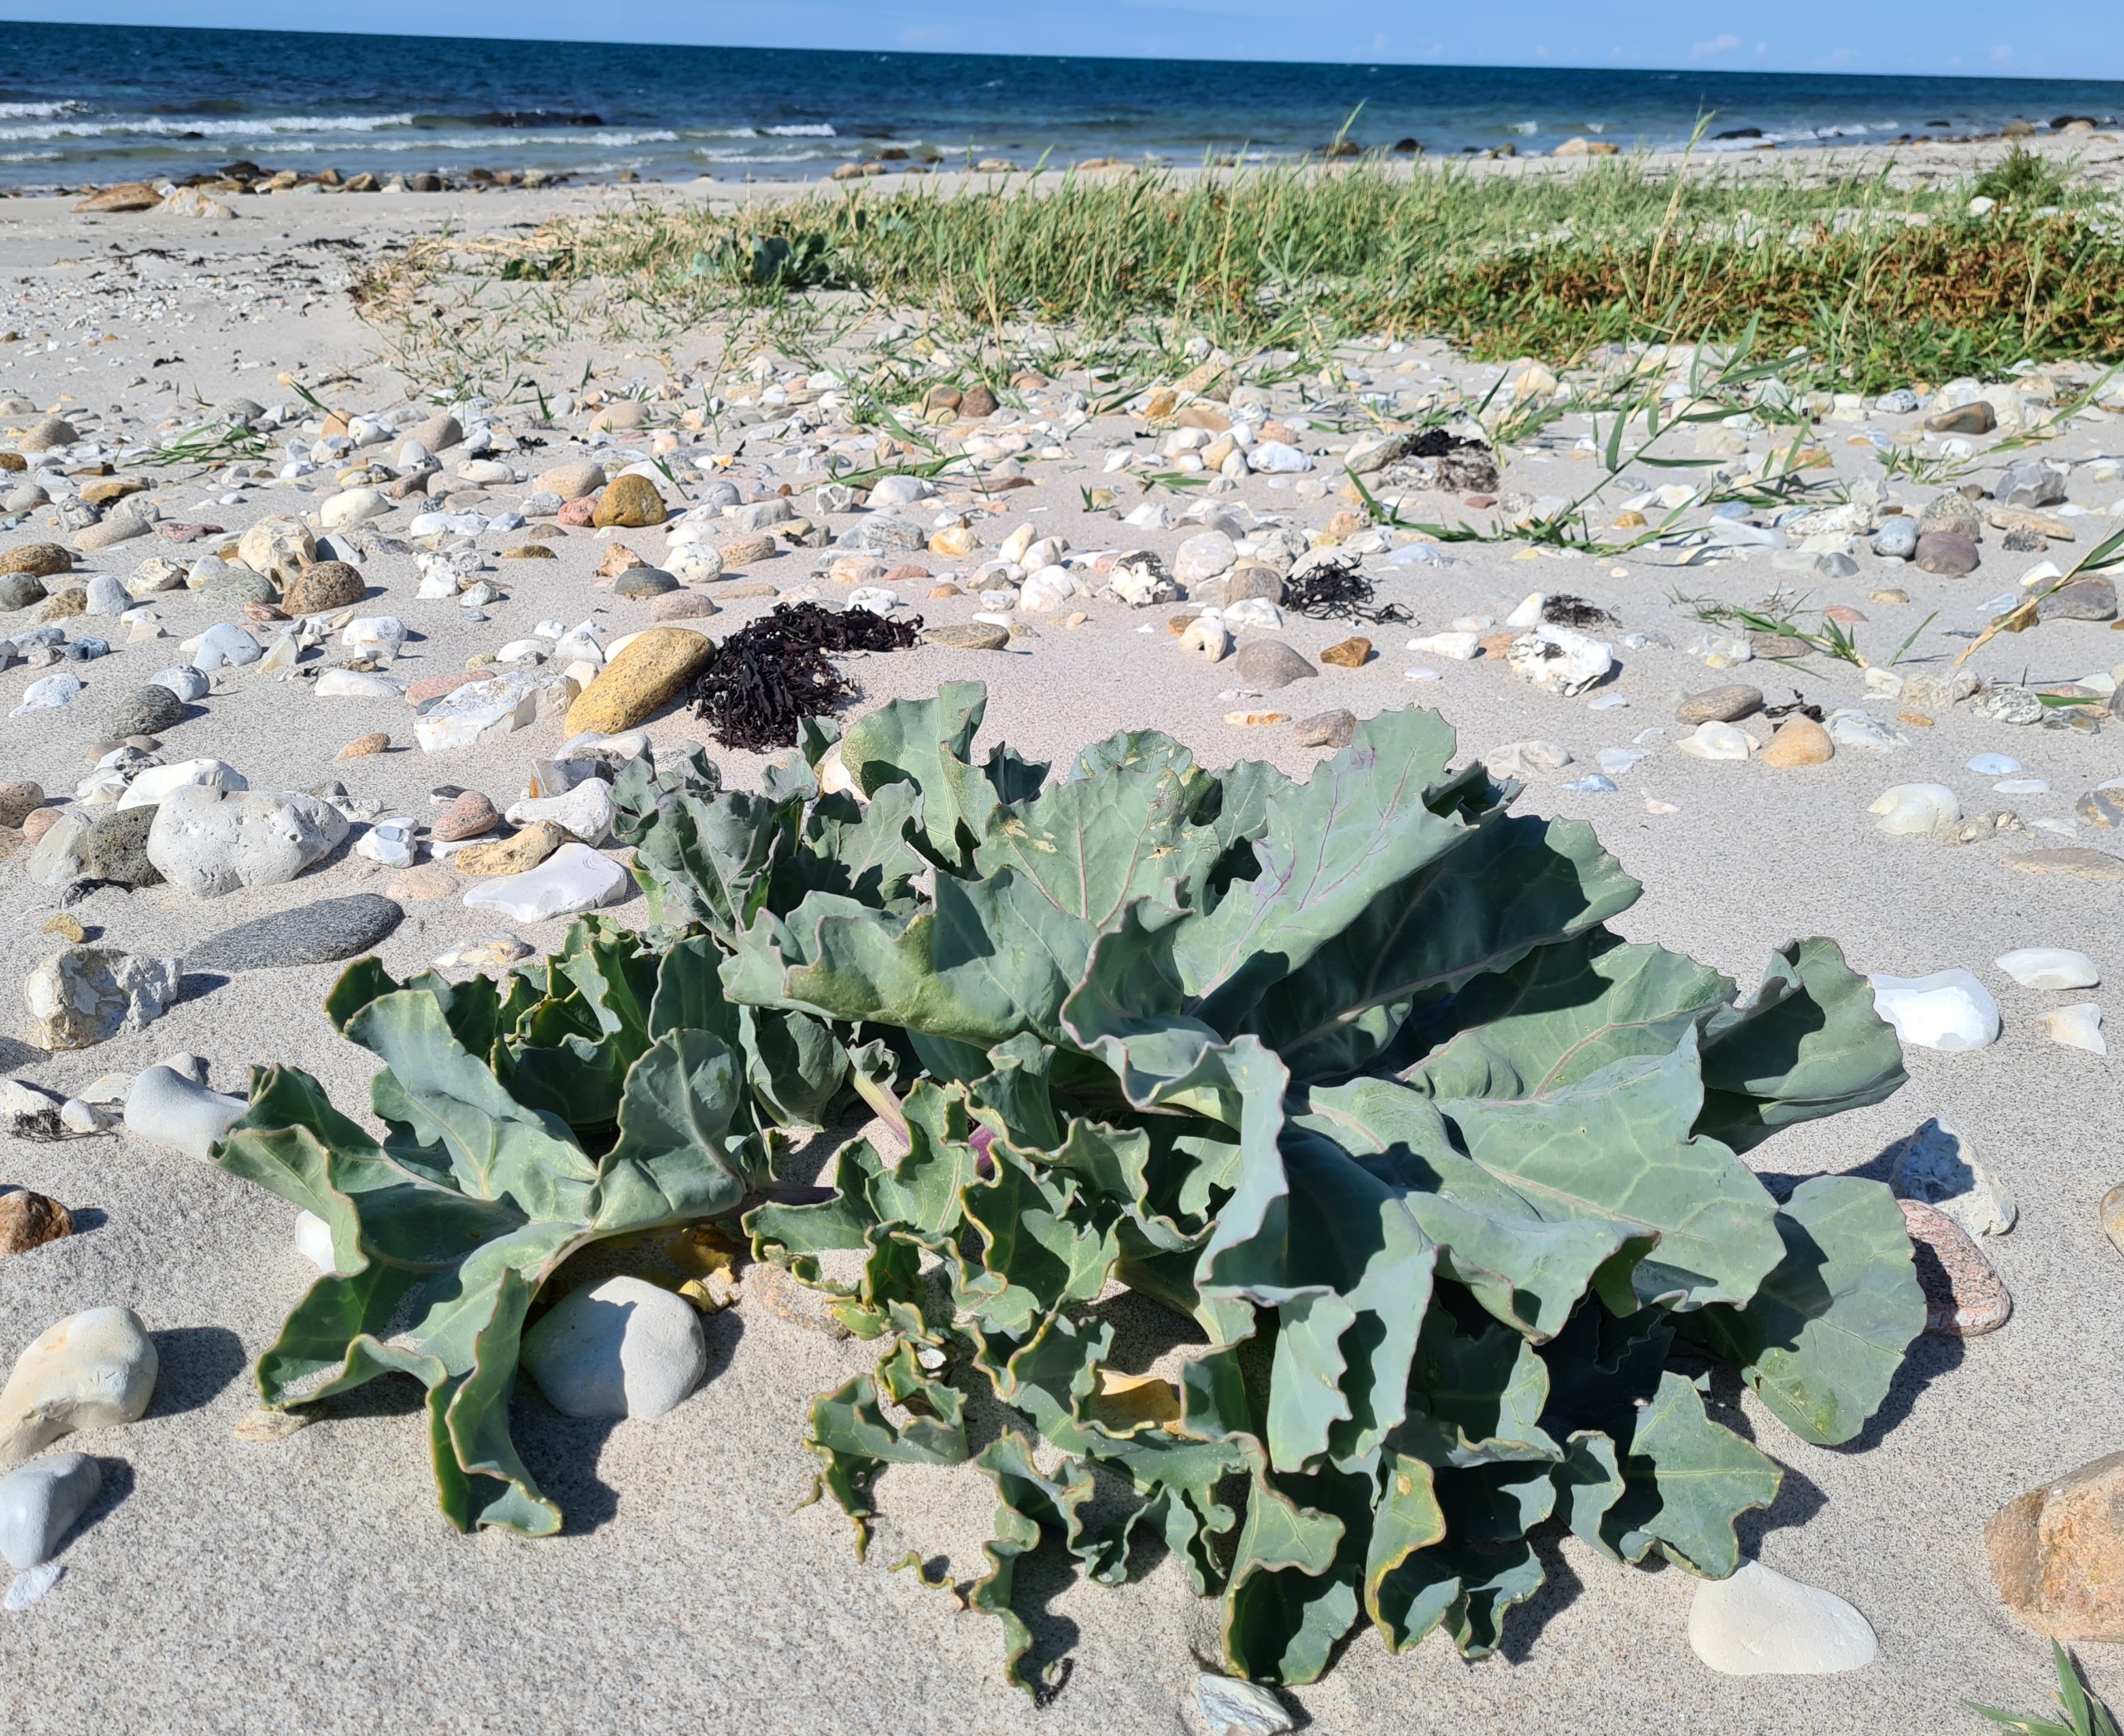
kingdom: Plantae
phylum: Tracheophyta
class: Magnoliopsida
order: Brassicales
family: Brassicaceae
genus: Crambe
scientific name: Crambe maritima
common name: Strandkål
